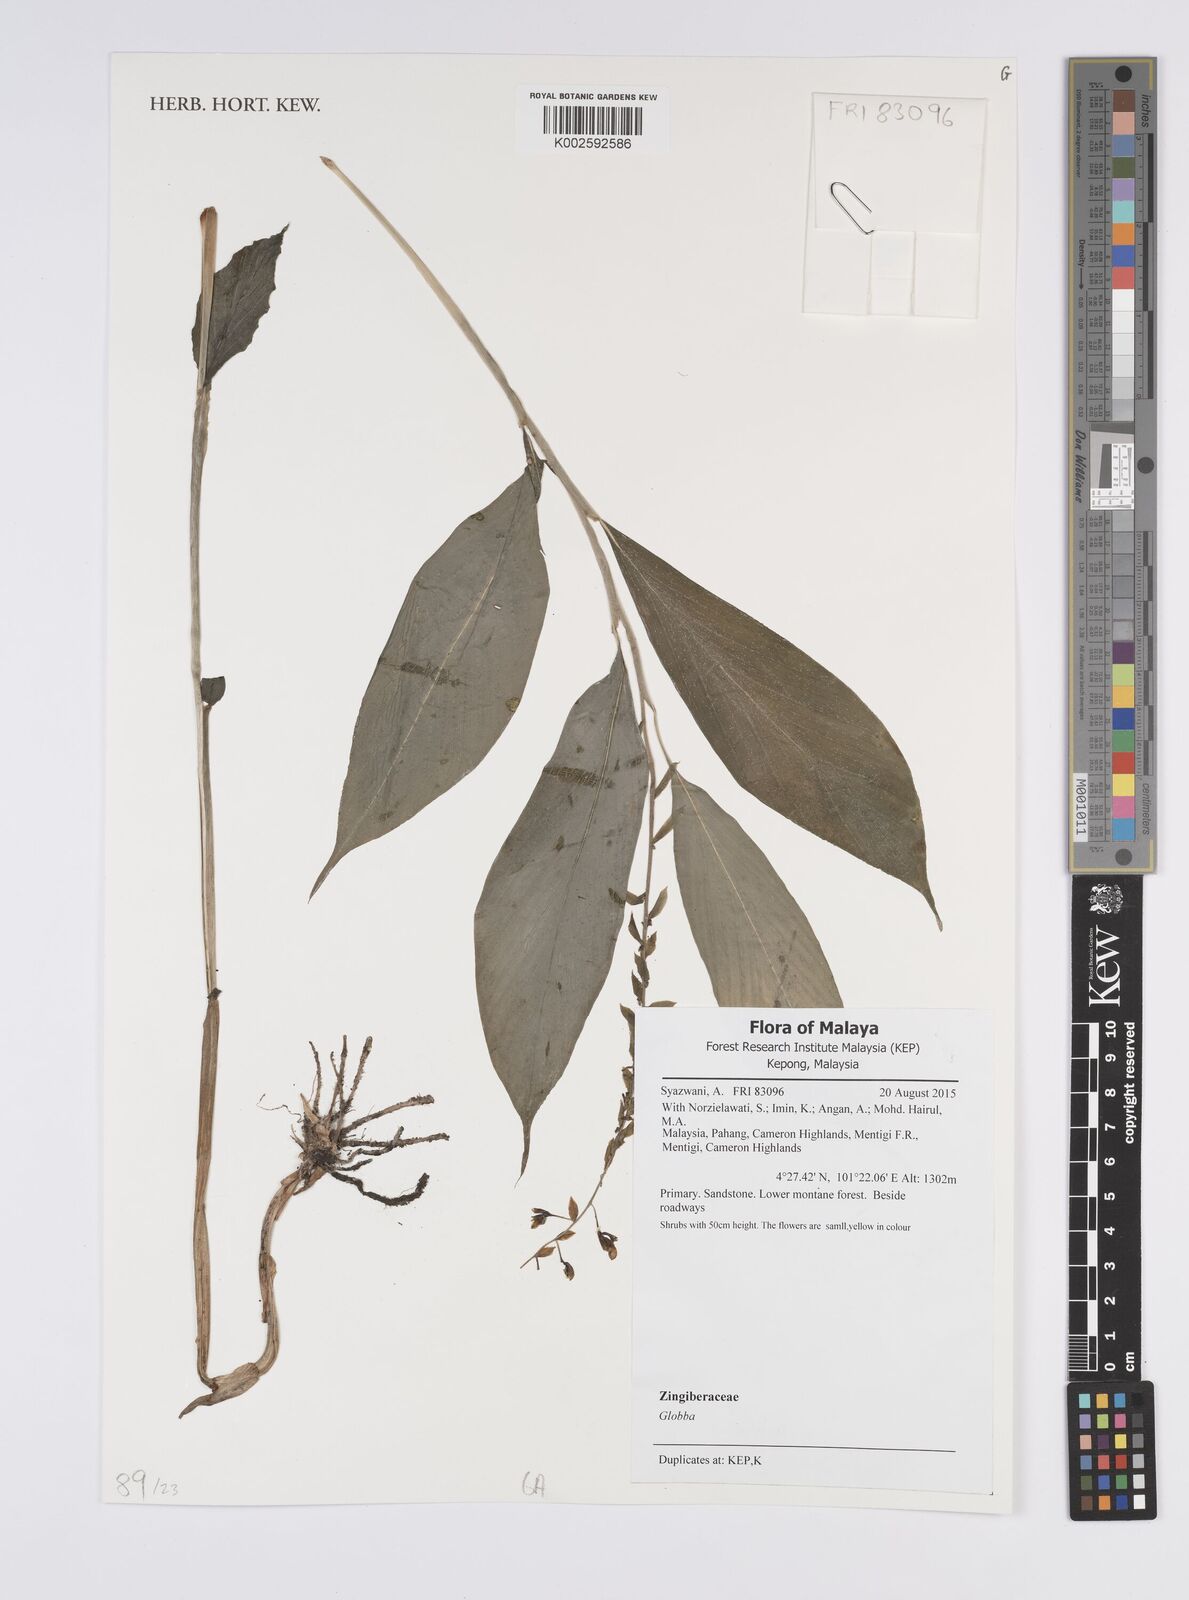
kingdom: Plantae
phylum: Tracheophyta
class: Liliopsida
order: Zingiberales
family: Zingiberaceae
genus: Globba
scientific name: Globba
